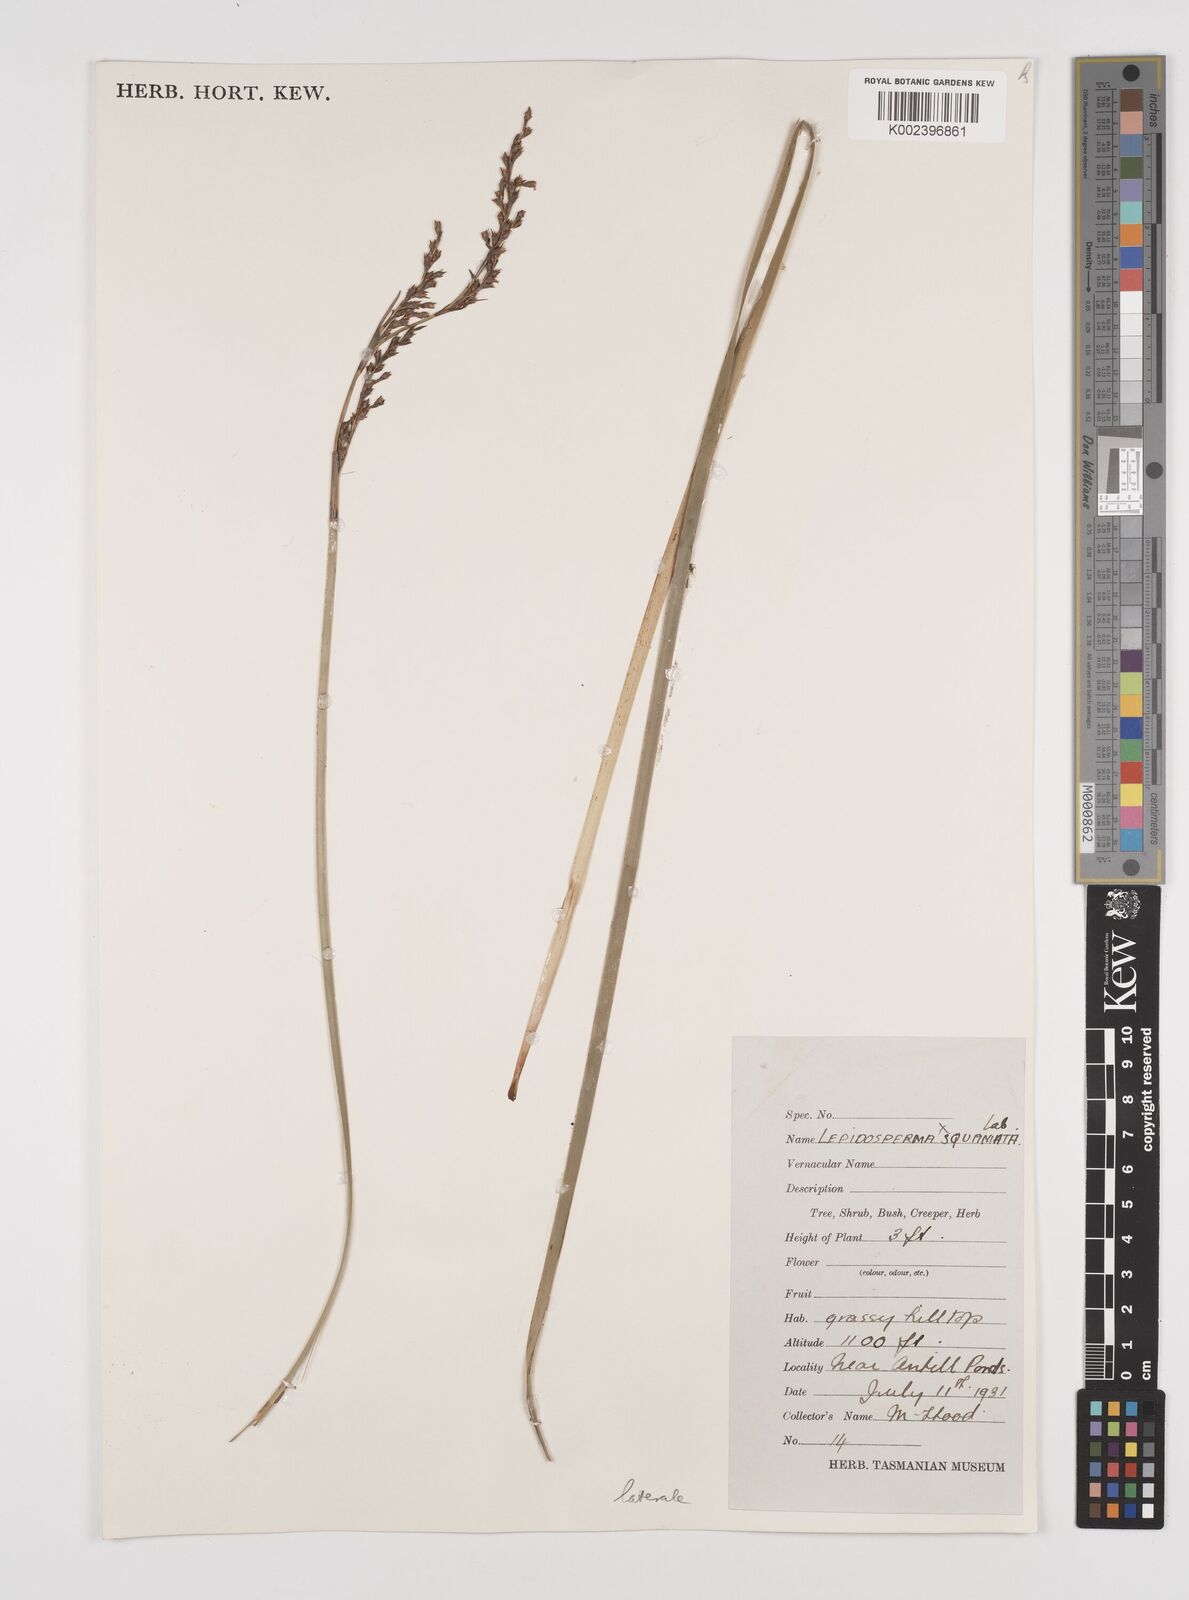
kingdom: Plantae
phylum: Tracheophyta
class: Liliopsida
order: Poales
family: Cyperaceae
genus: Lepidosperma
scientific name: Lepidosperma laterale
